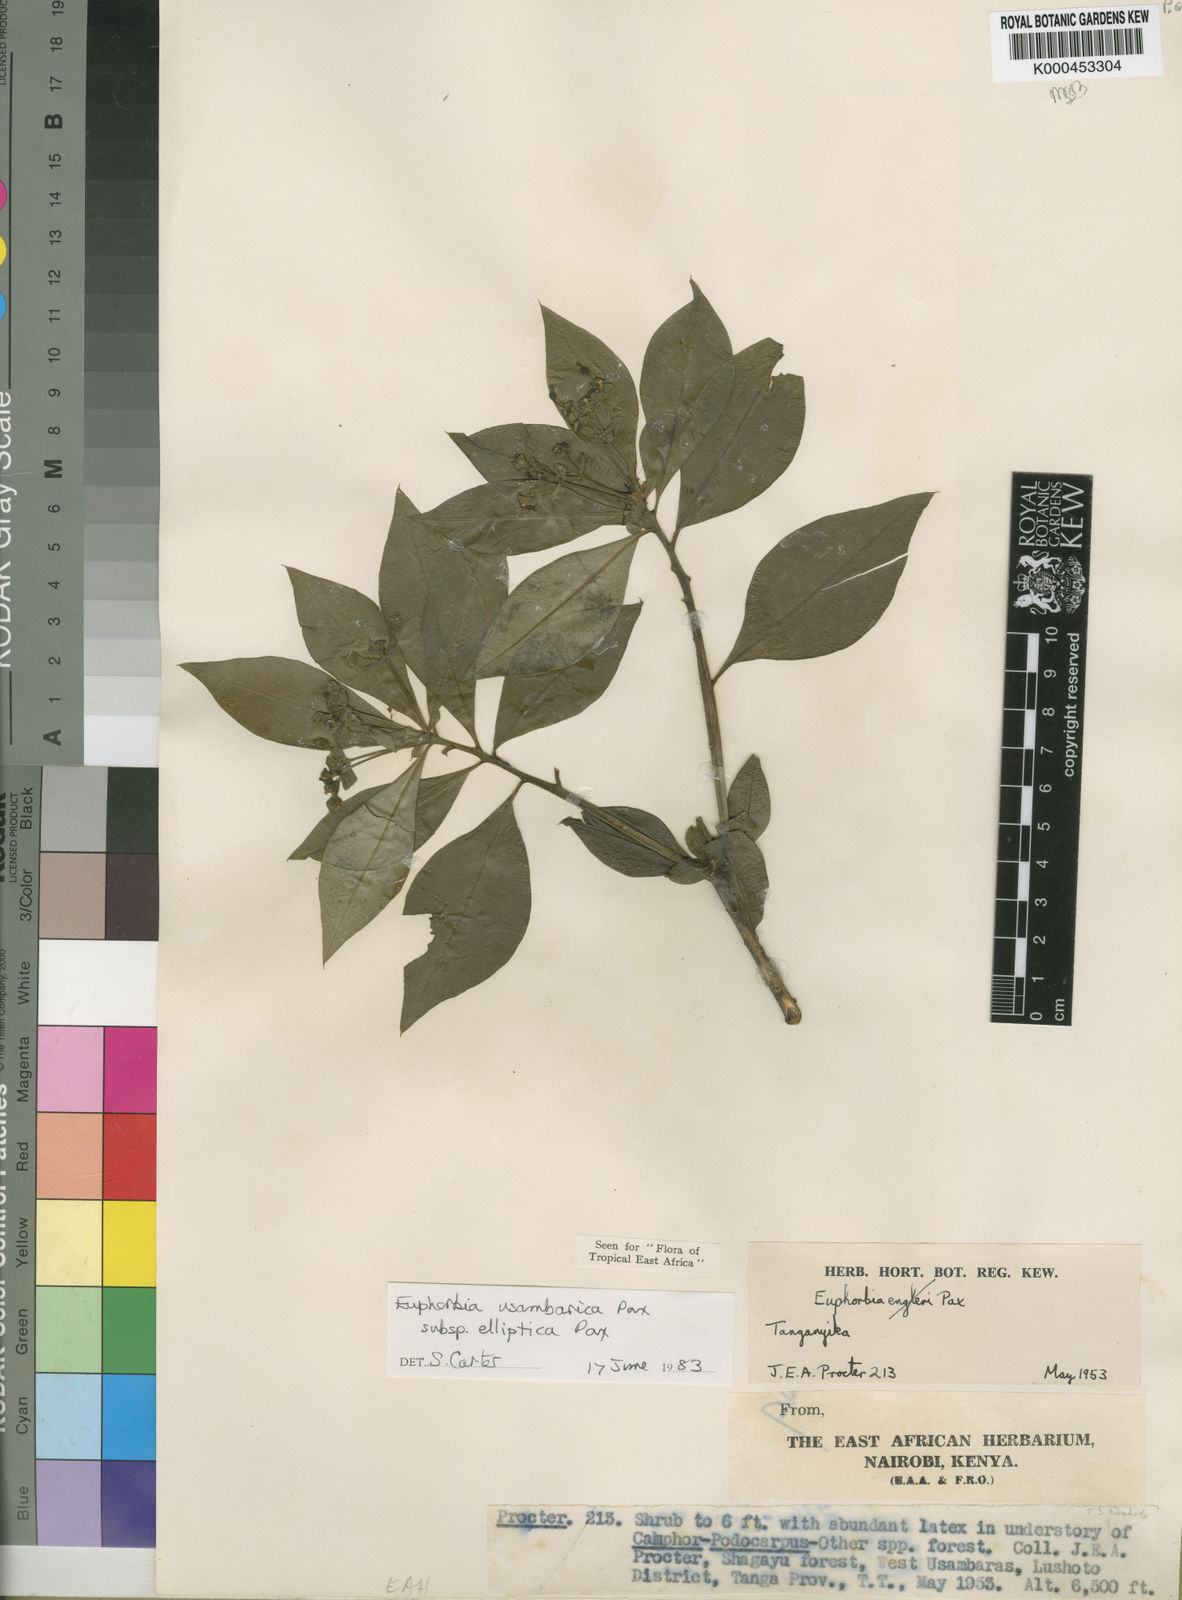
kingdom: Plantae
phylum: Tracheophyta
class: Magnoliopsida
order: Malpighiales
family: Euphorbiaceae
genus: Euphorbia
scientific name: Euphorbia usambarica
